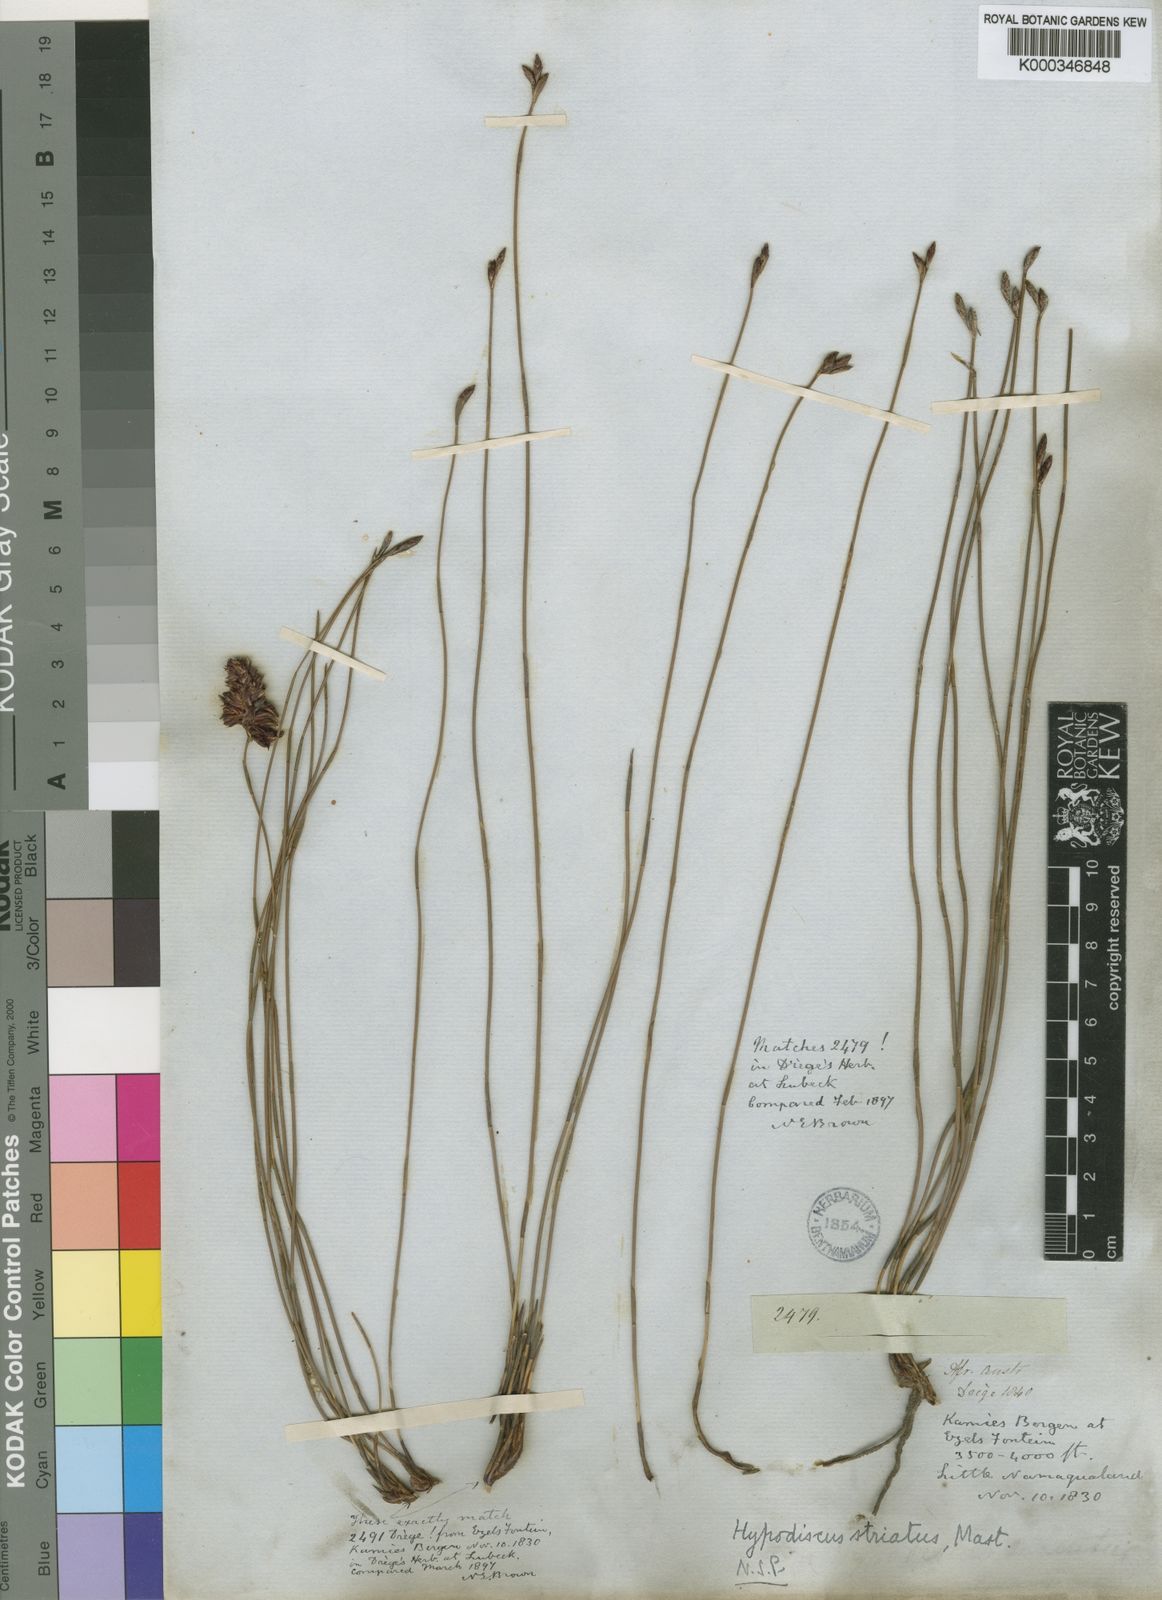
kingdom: Plantae
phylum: Tracheophyta
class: Liliopsida
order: Poales
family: Restionaceae
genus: Hypodiscus
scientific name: Hypodiscus striatus
